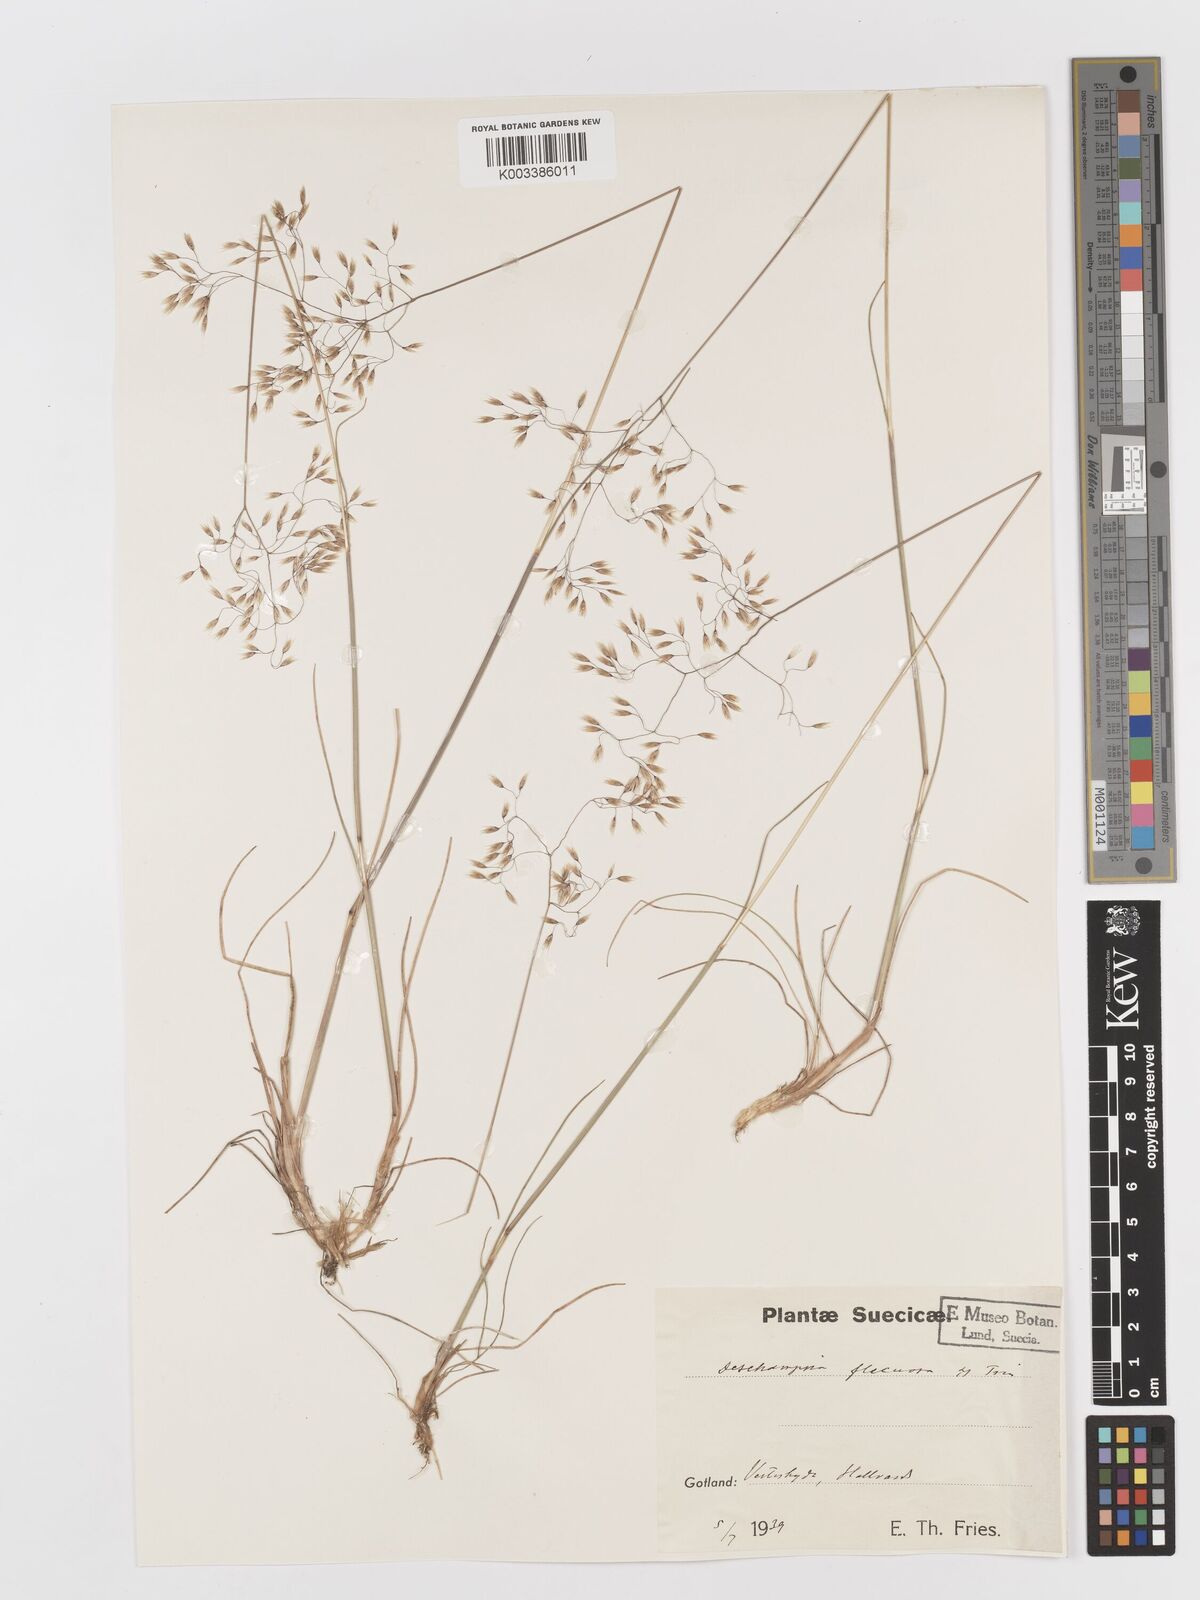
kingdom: Plantae
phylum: Tracheophyta
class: Liliopsida
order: Poales
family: Poaceae
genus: Avenella
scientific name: Avenella flexuosa
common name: Wavy hairgrass
